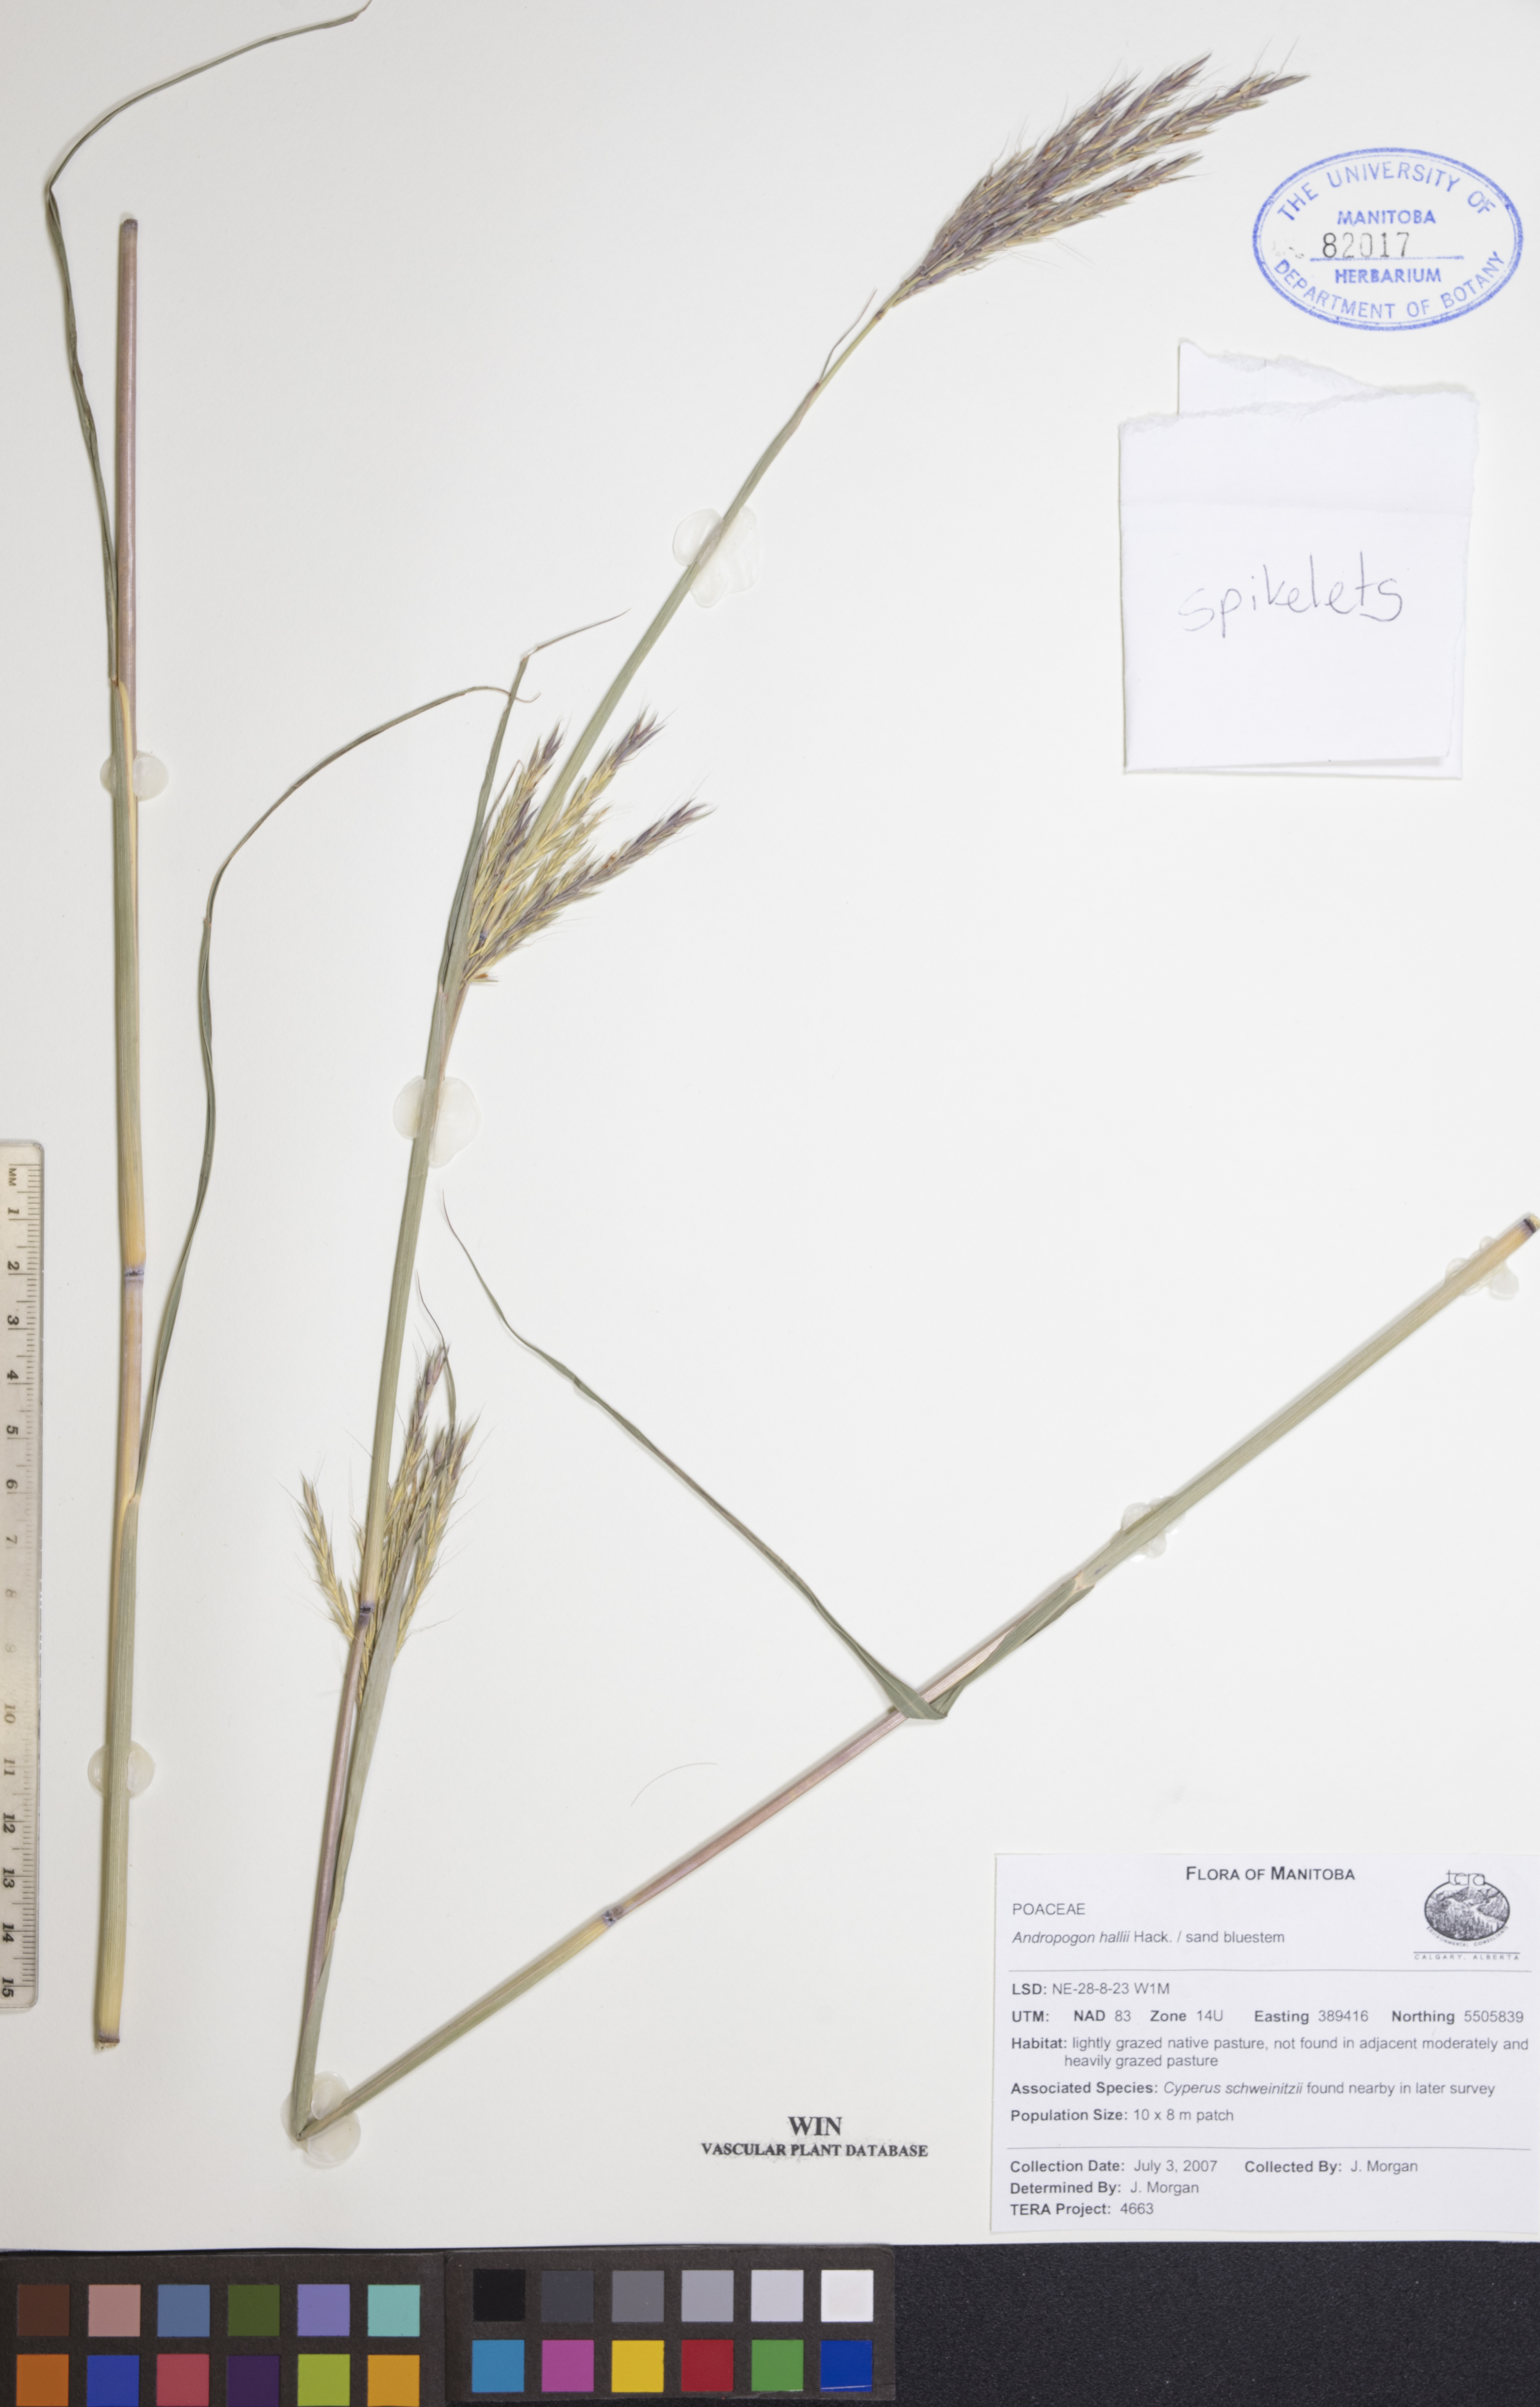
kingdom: Plantae
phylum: Tracheophyta
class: Magnoliopsida
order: Lamiales
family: Verbenaceae
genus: Verbena
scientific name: Verbena bracteata
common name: Bracted vervain
